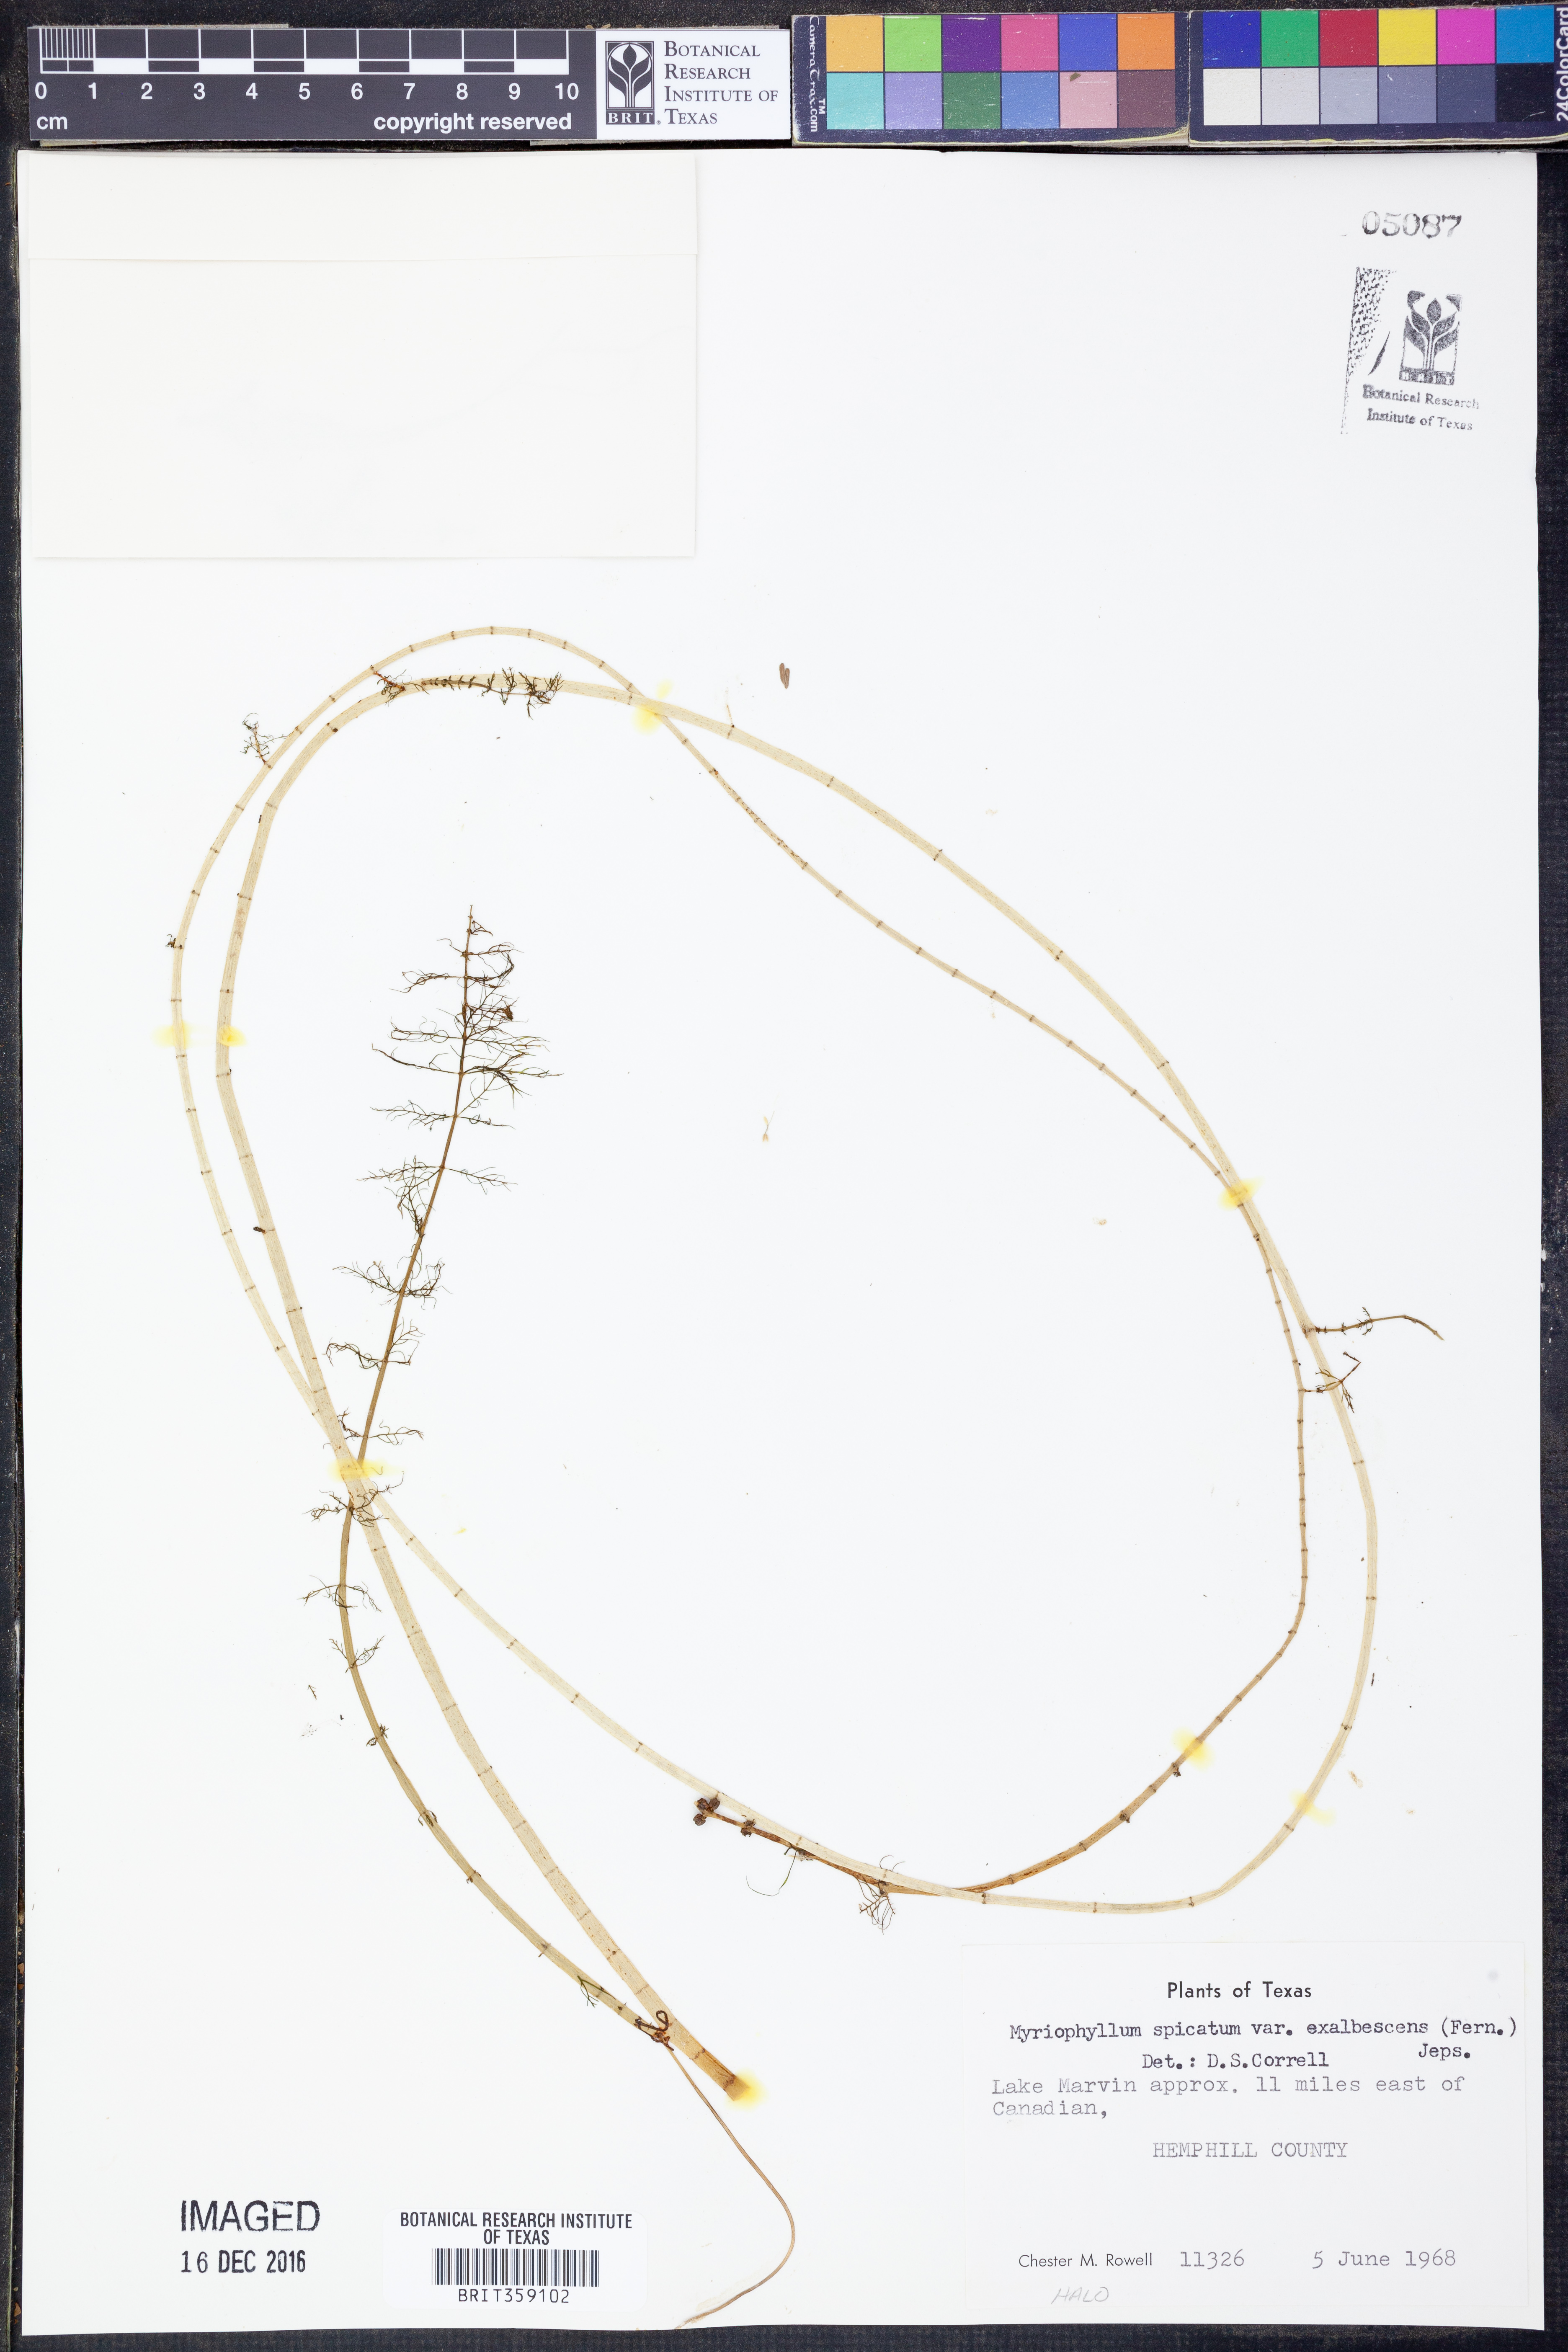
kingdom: Plantae
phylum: Tracheophyta
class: Magnoliopsida
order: Saxifragales
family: Haloragaceae
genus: Myriophyllum
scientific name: Myriophyllum sibiricum
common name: Siberian water-milfoil
